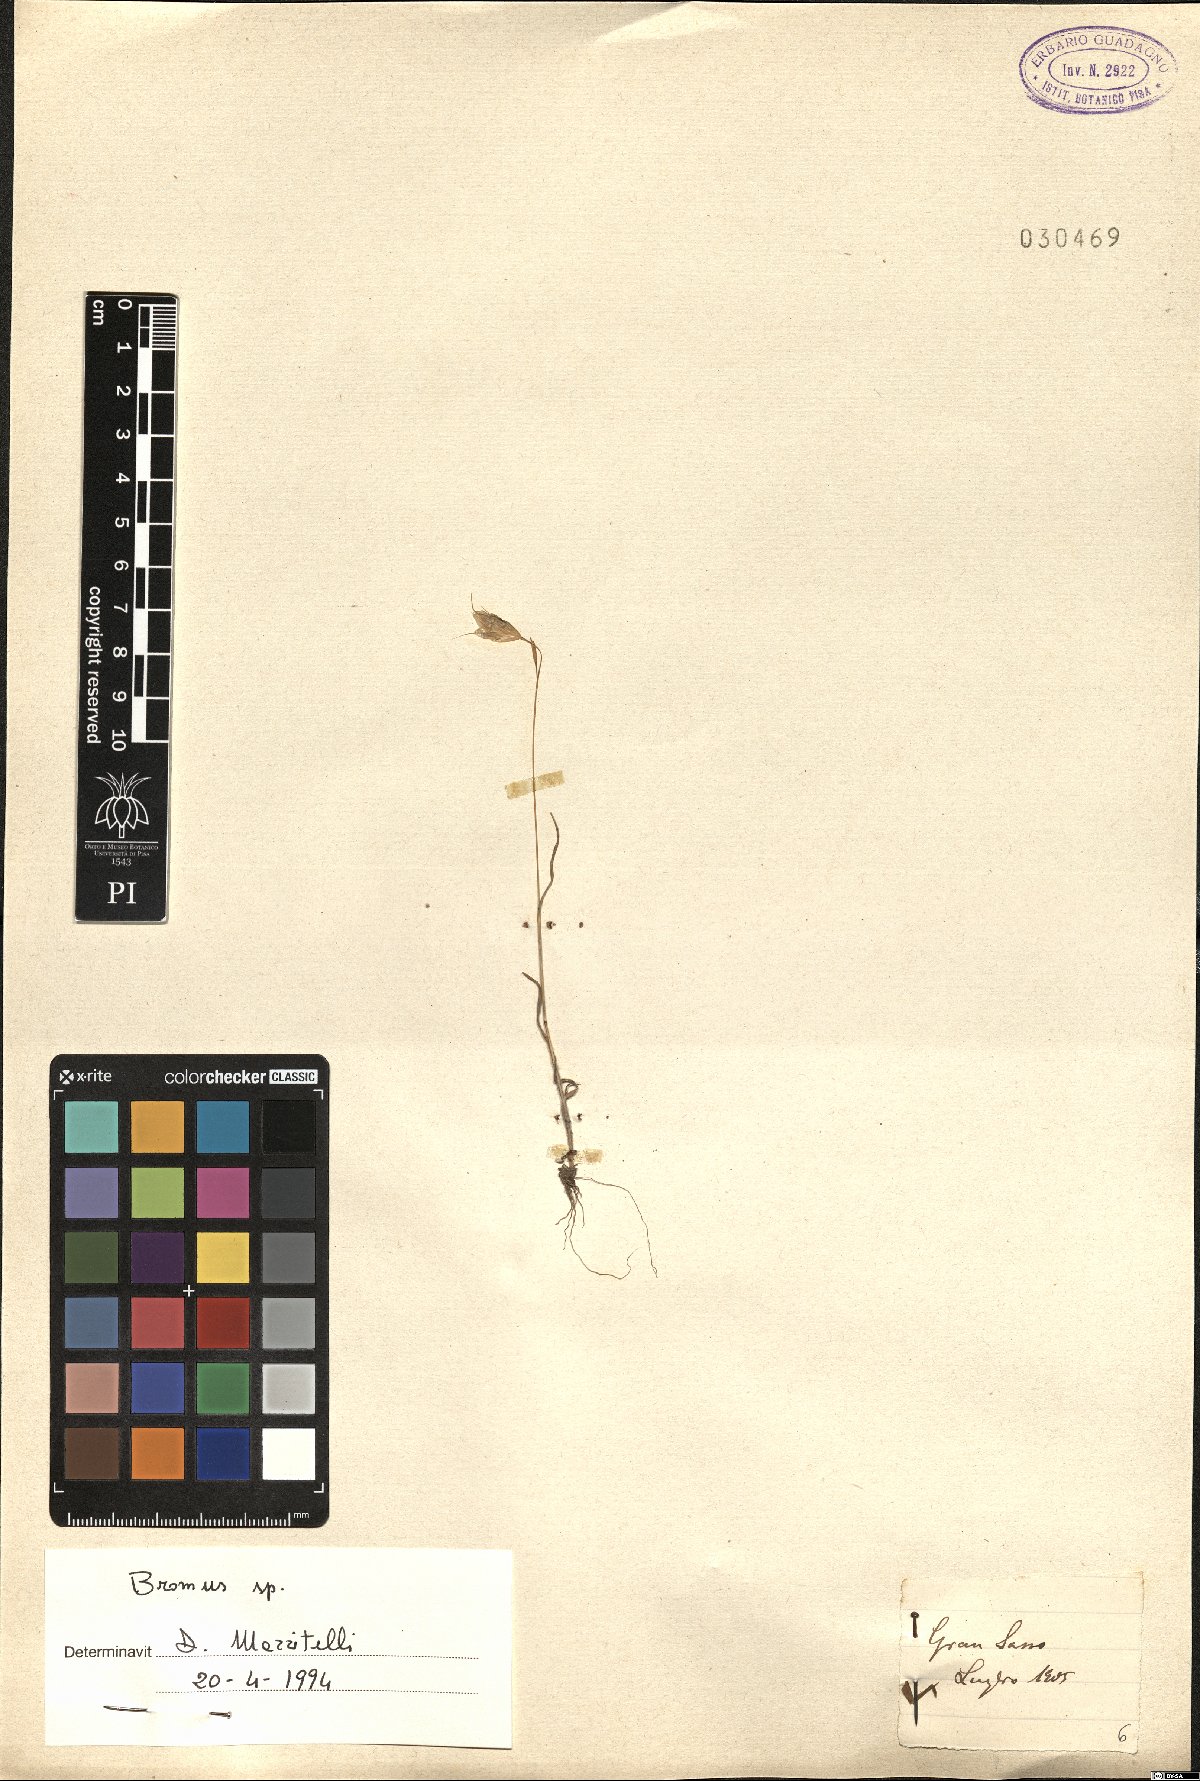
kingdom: Plantae
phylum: Tracheophyta
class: Liliopsida
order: Poales
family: Poaceae
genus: Bromus
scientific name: Bromus
